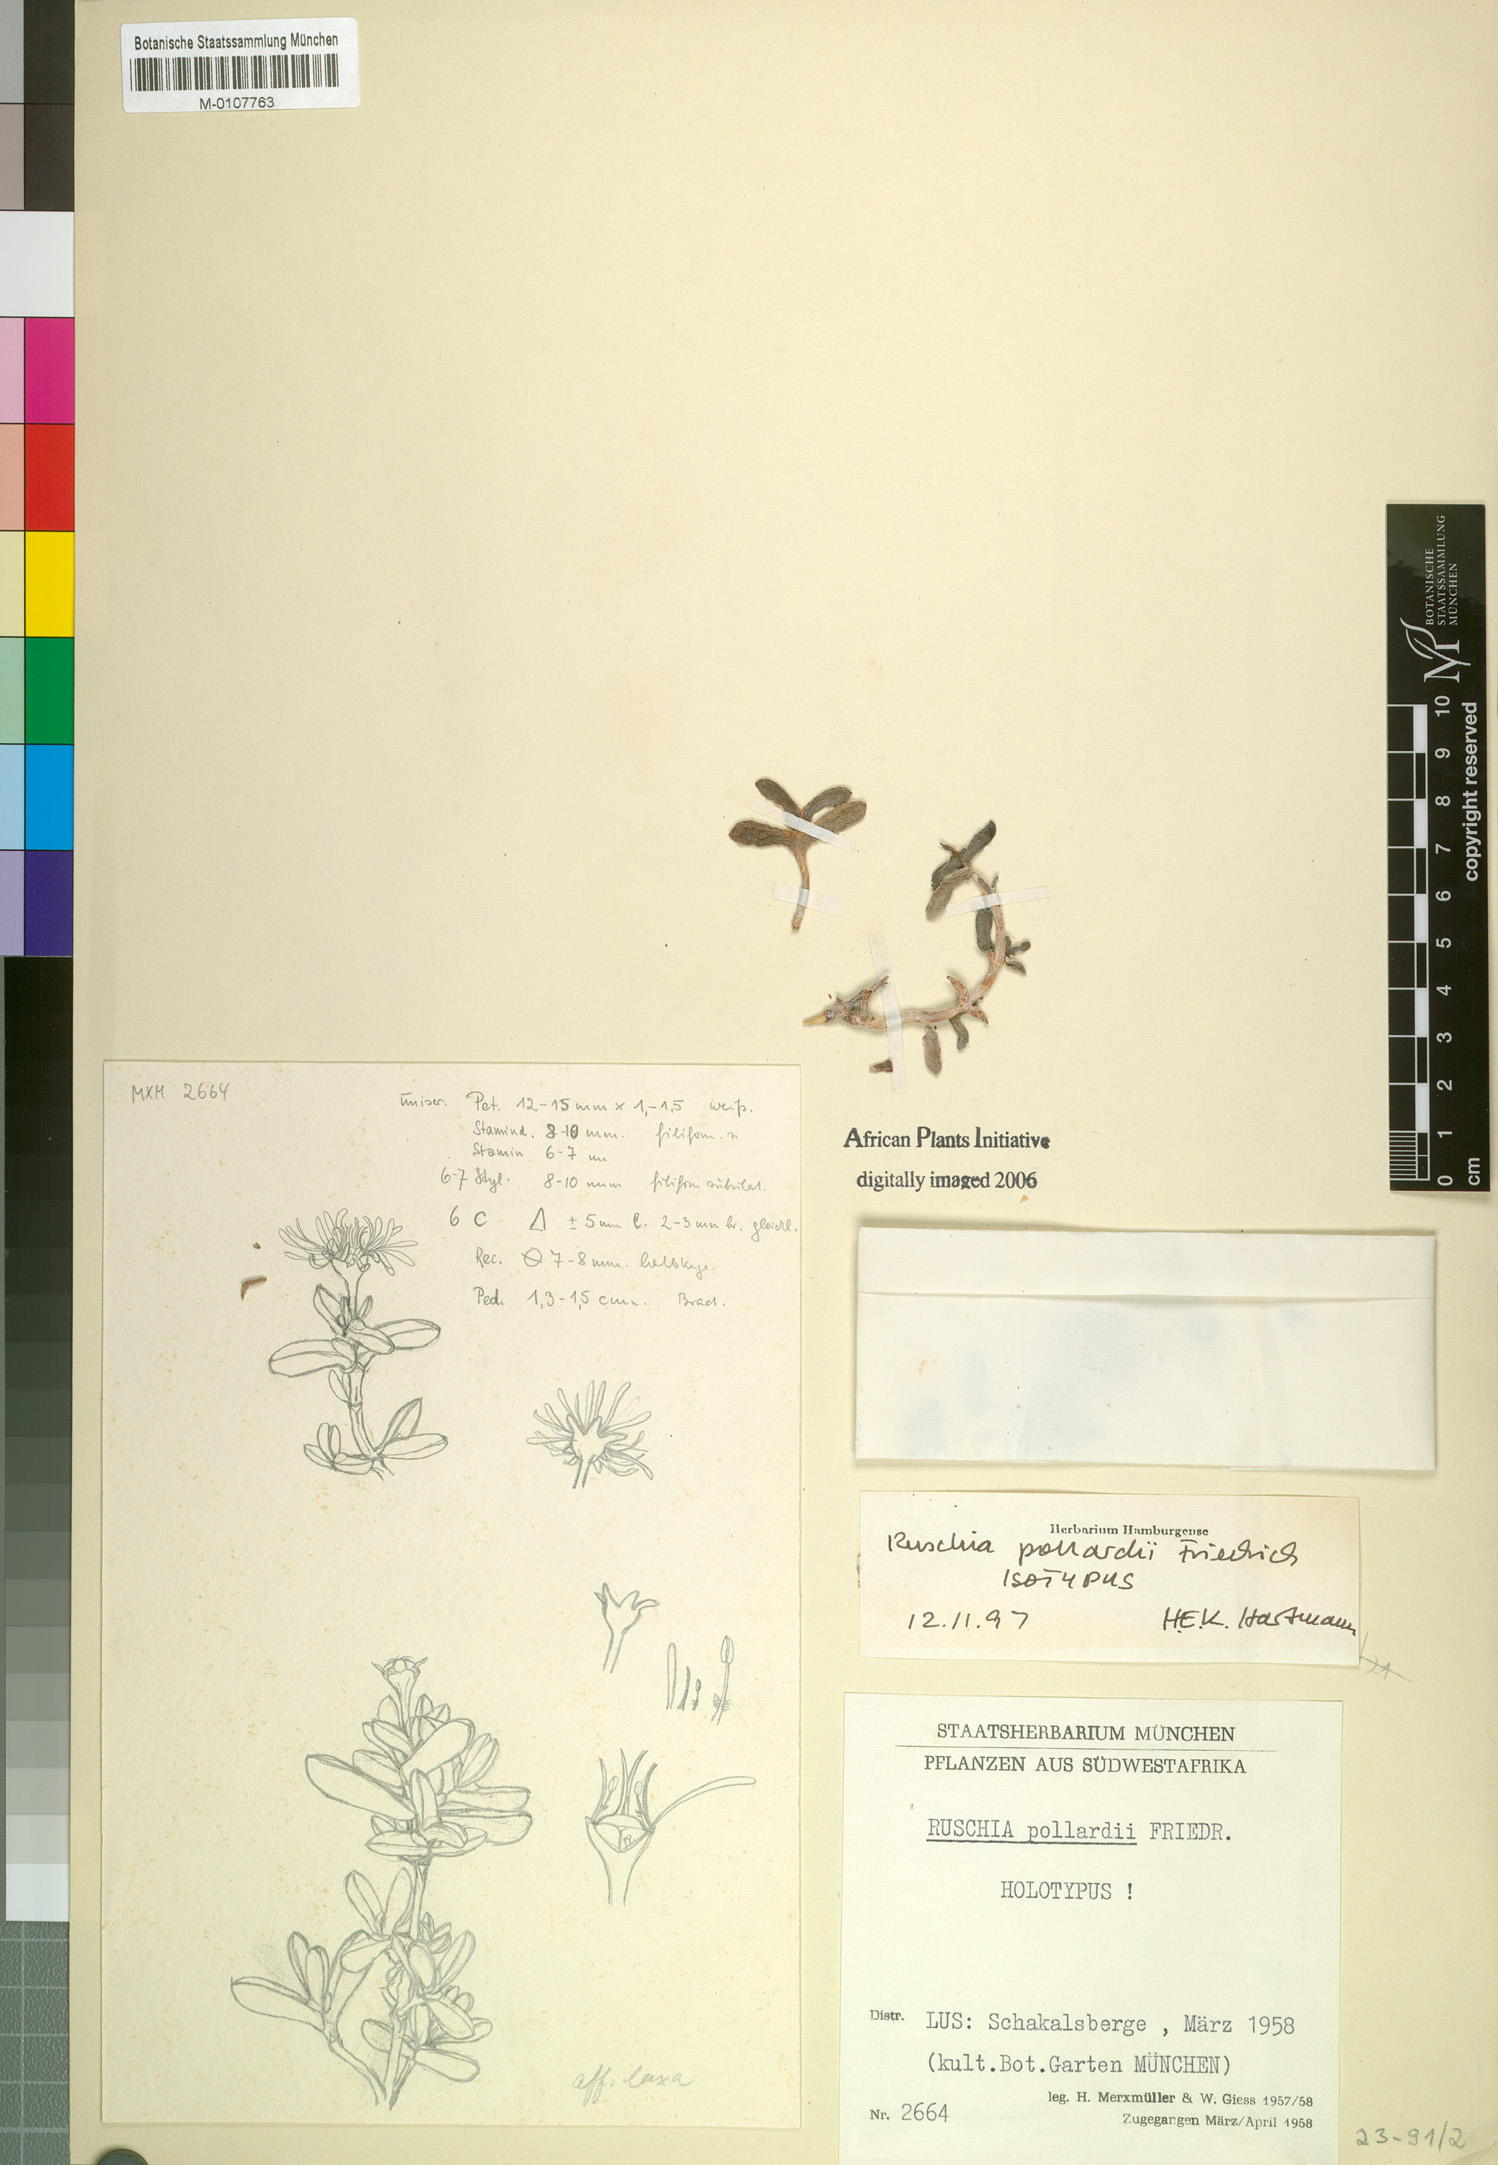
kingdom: Plantae
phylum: Tracheophyta
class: Magnoliopsida
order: Caryophyllales
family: Aizoaceae
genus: Ruschia
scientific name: Ruschia pollardii
